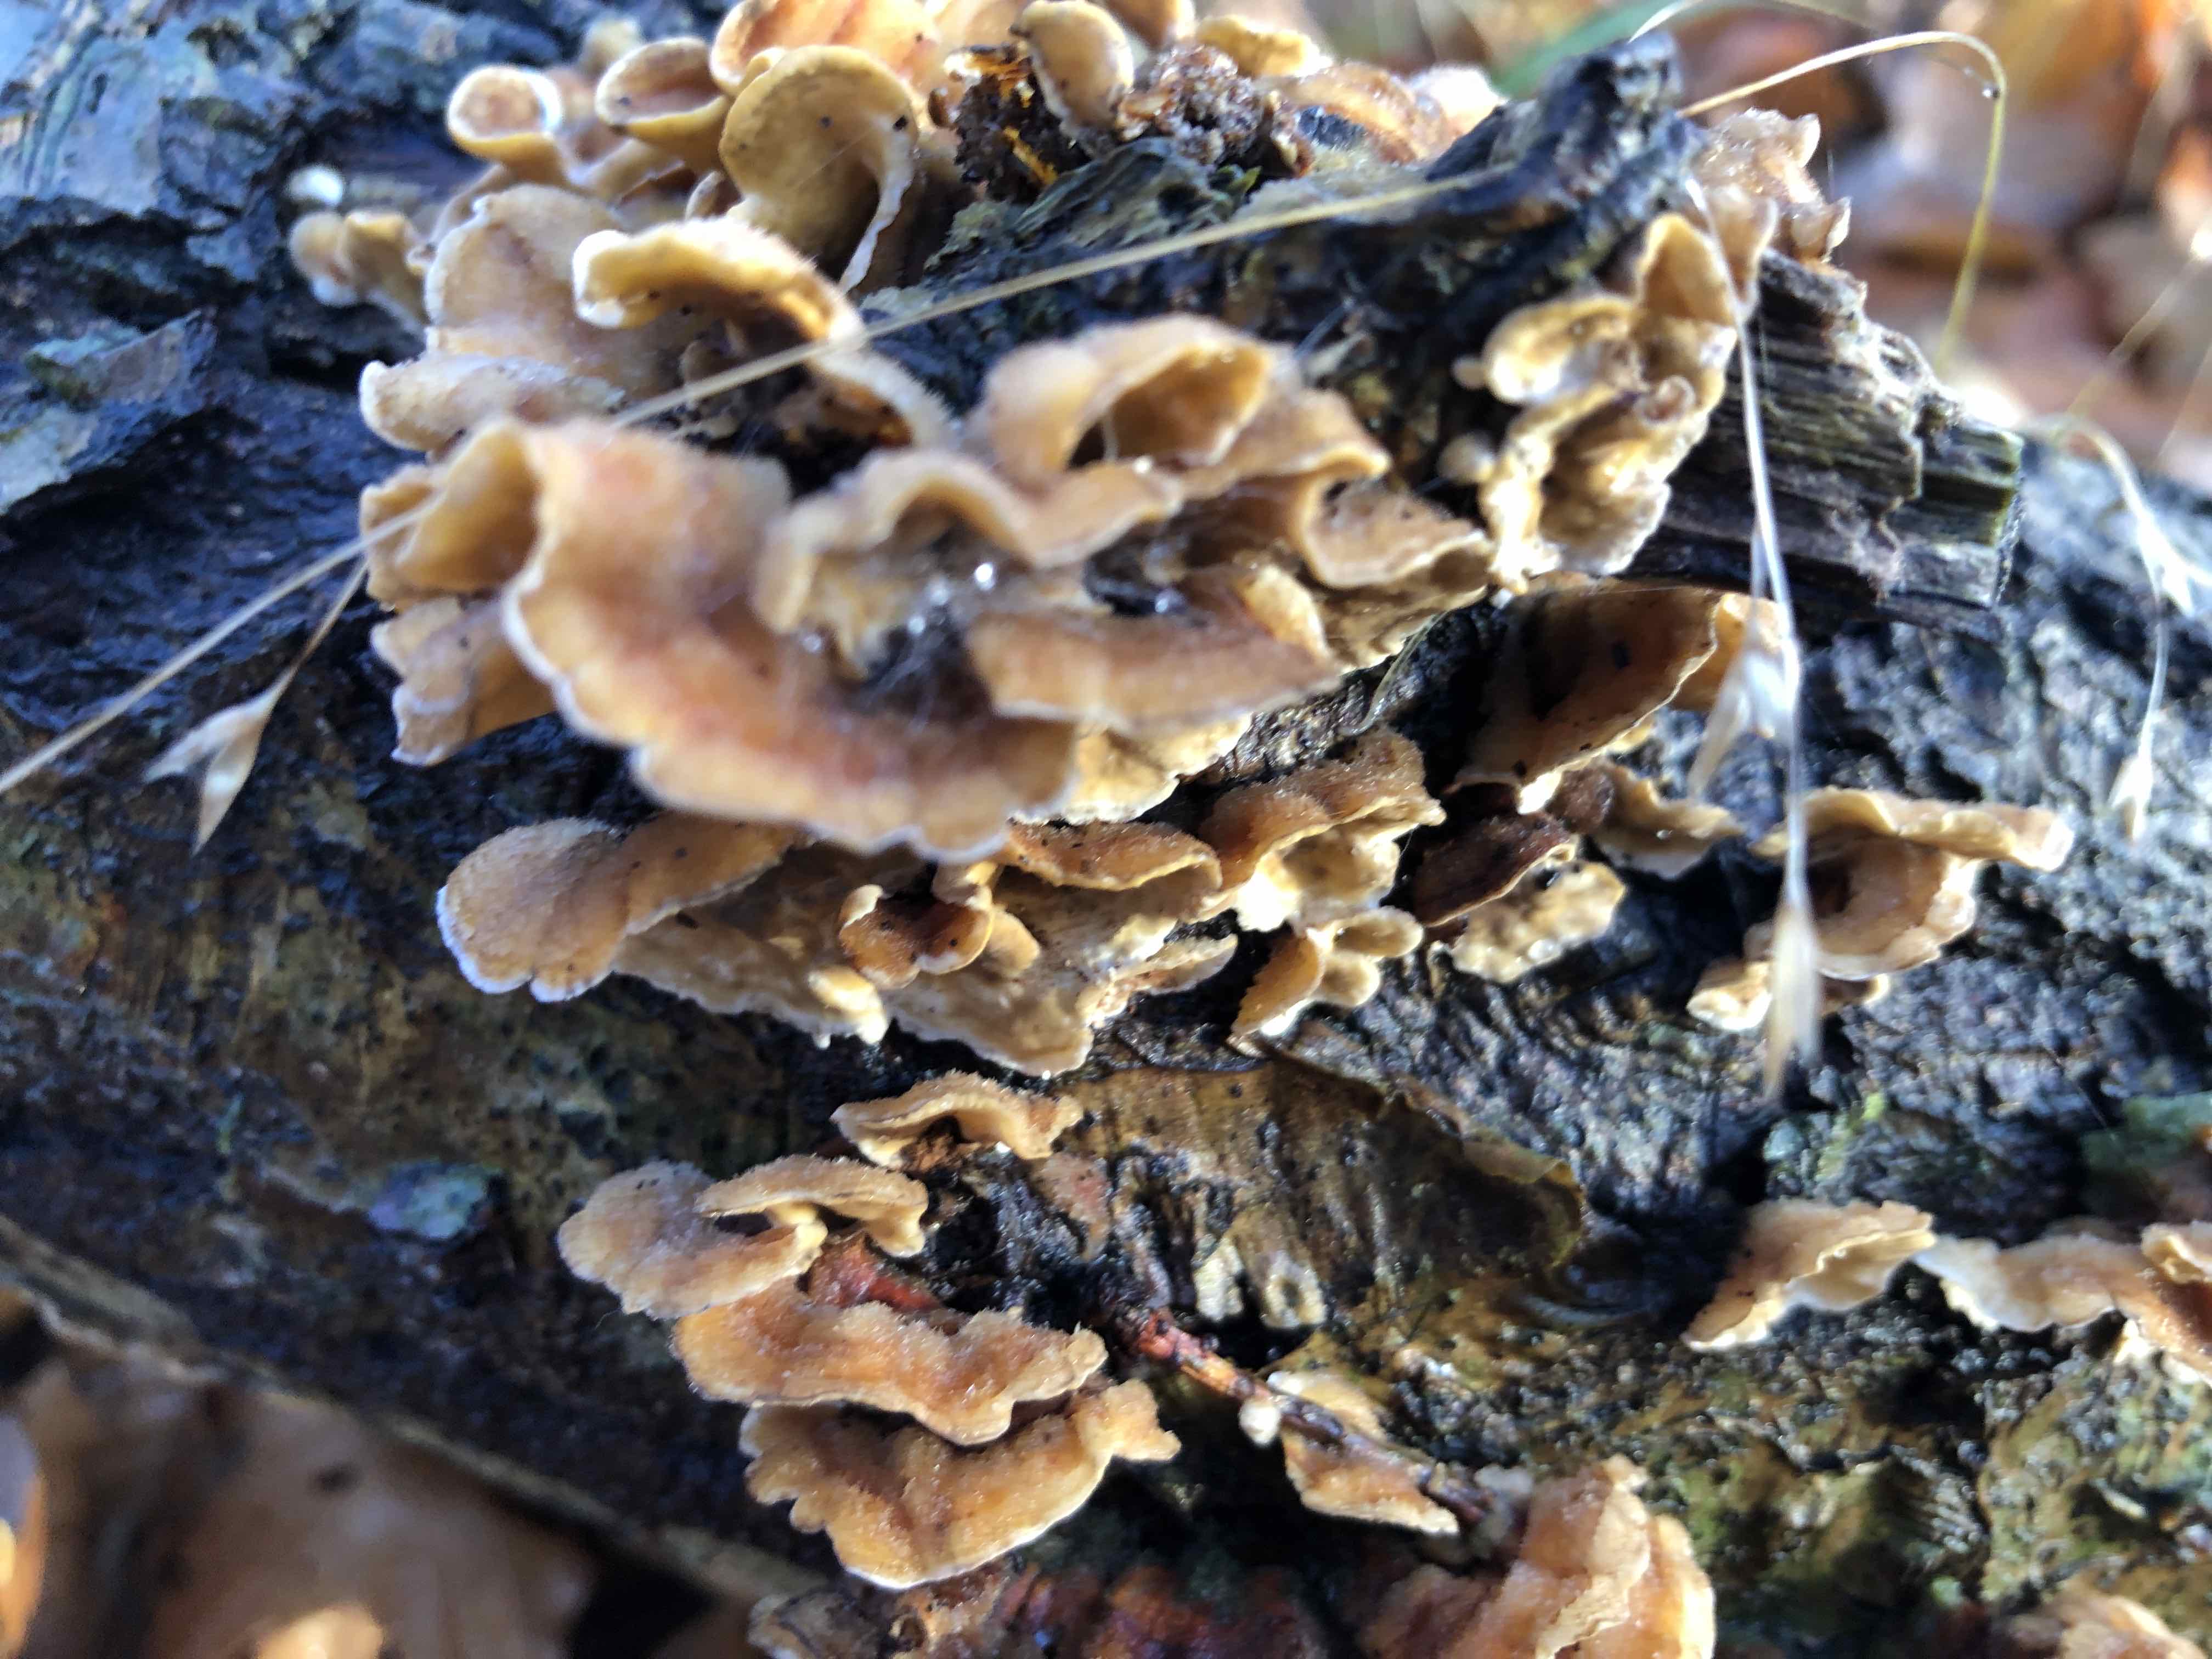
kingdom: Fungi
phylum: Basidiomycota
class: Agaricomycetes
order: Russulales
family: Stereaceae
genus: Stereum
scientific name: Stereum hirsutum
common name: håret lædersvamp
